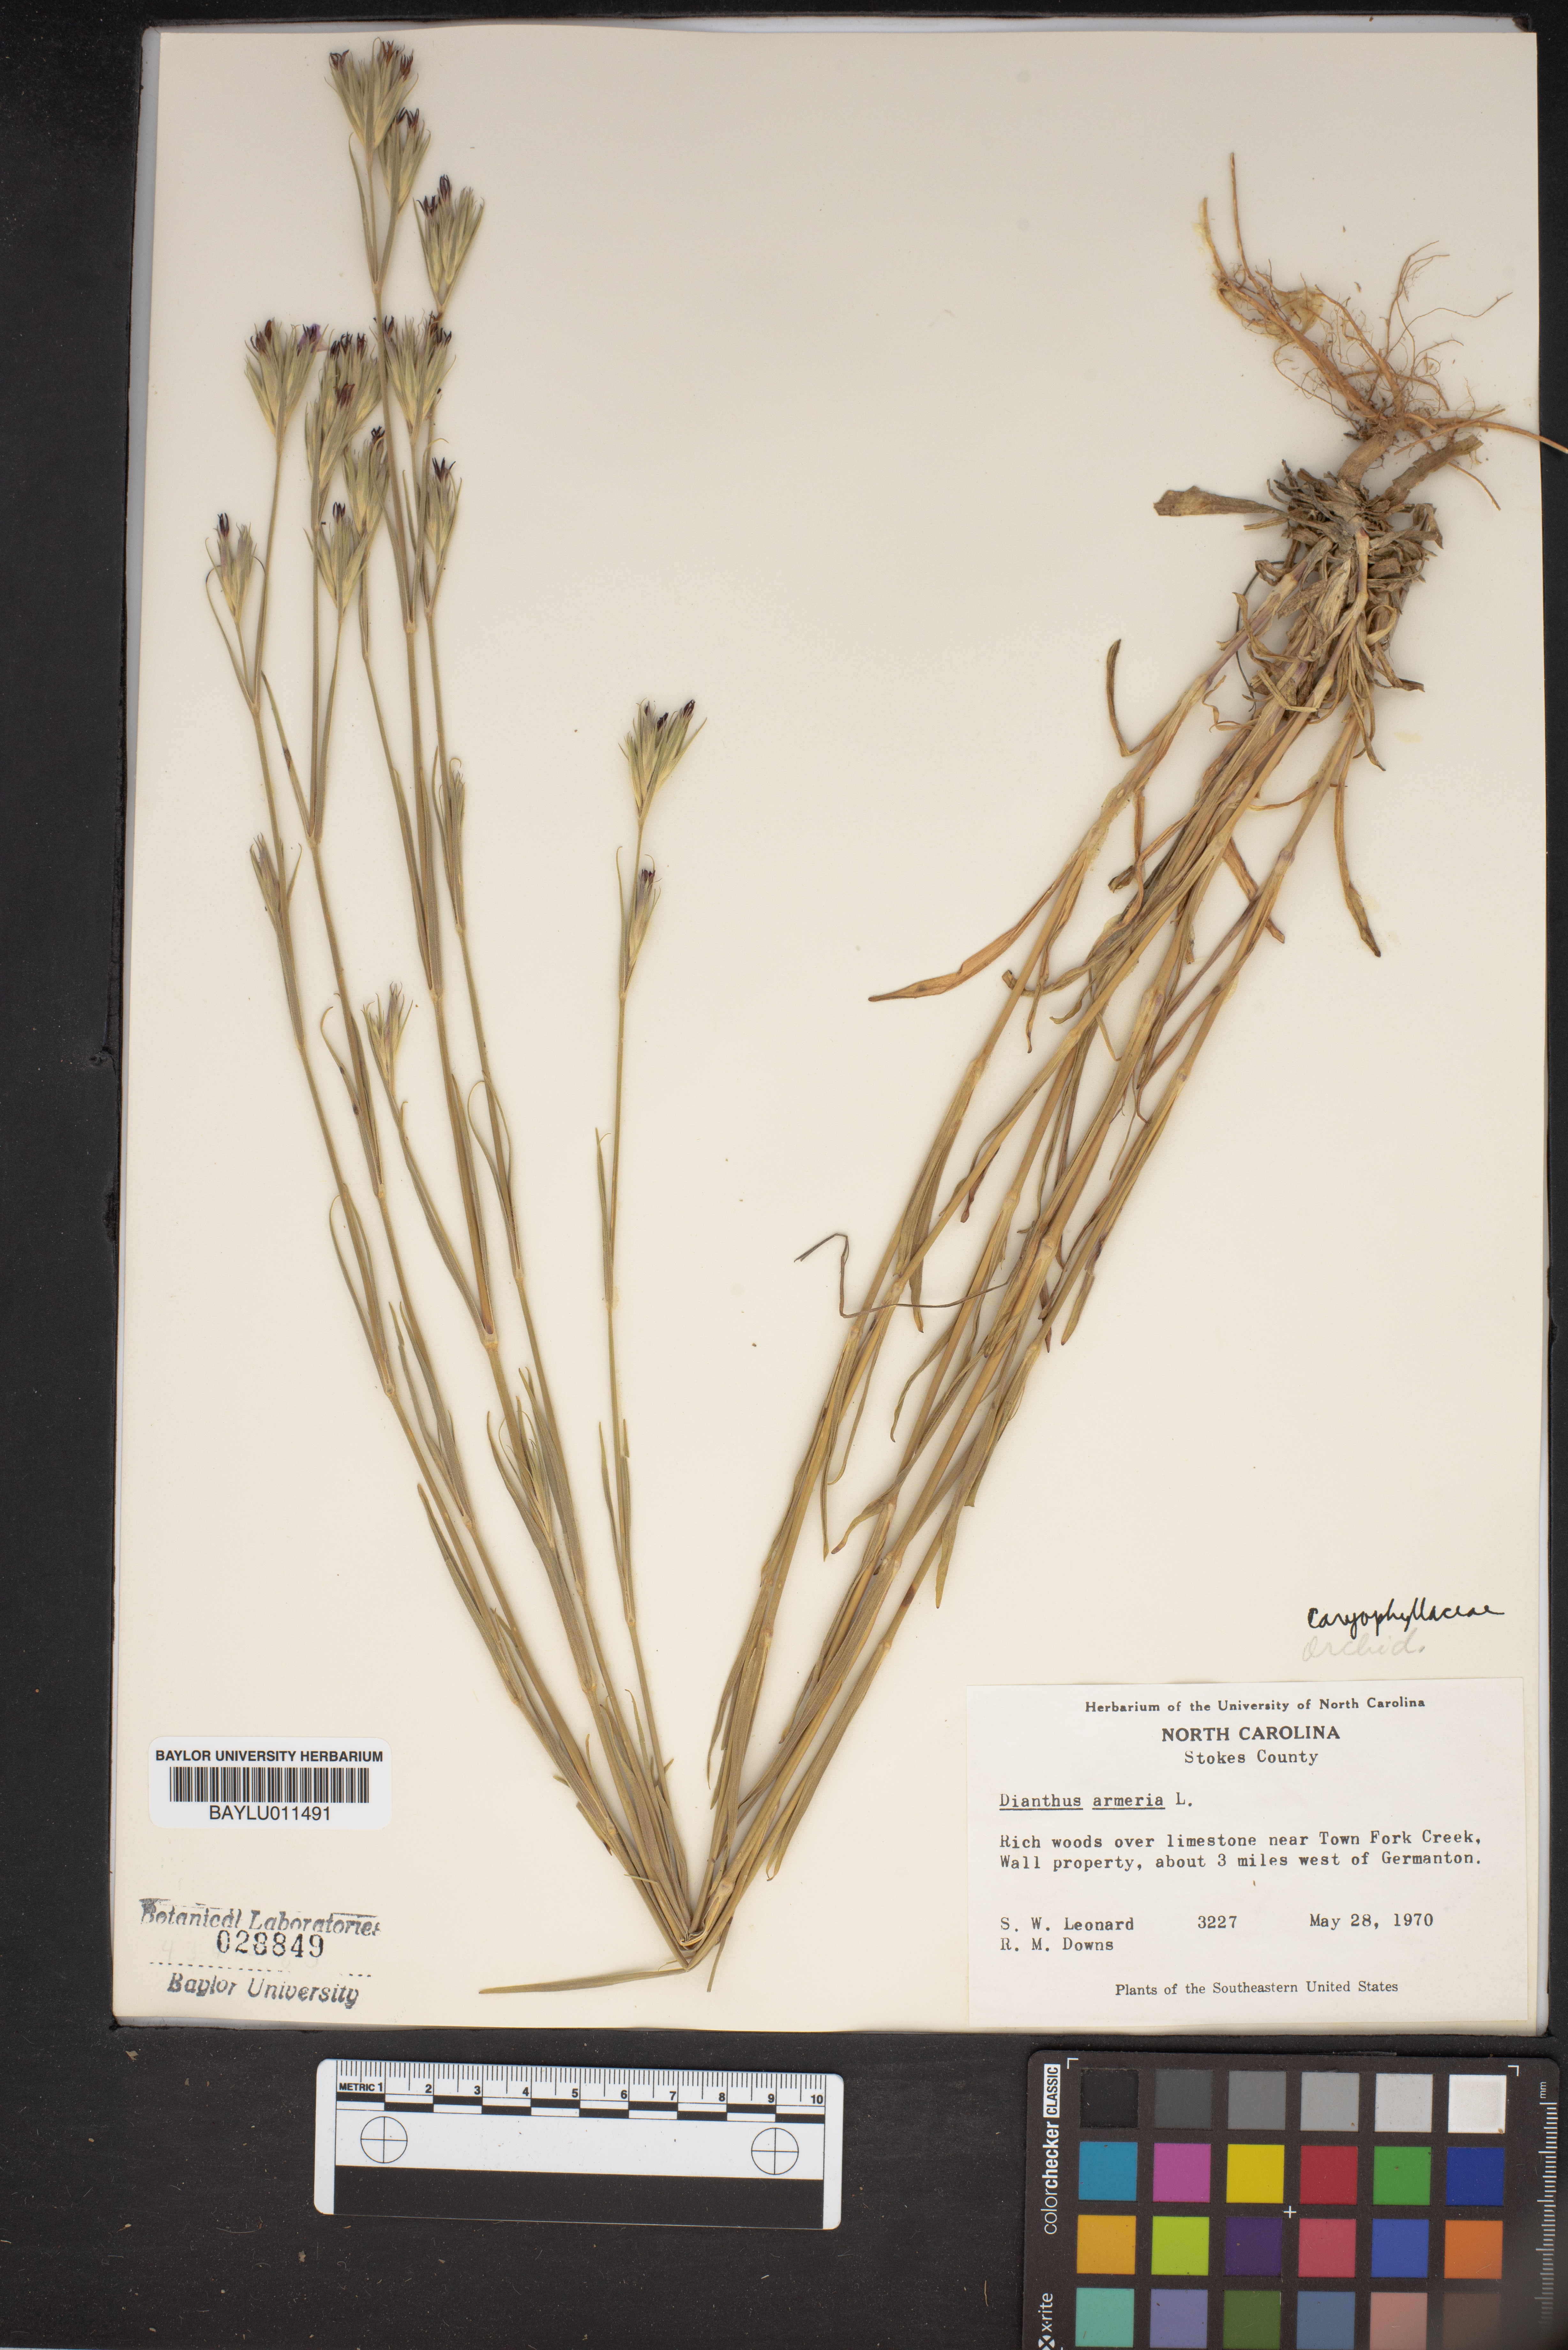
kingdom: Plantae
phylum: Tracheophyta
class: Magnoliopsida
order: Caryophyllales
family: Caryophyllaceae
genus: Dianthus
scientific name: Dianthus armeria
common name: Deptford pink
